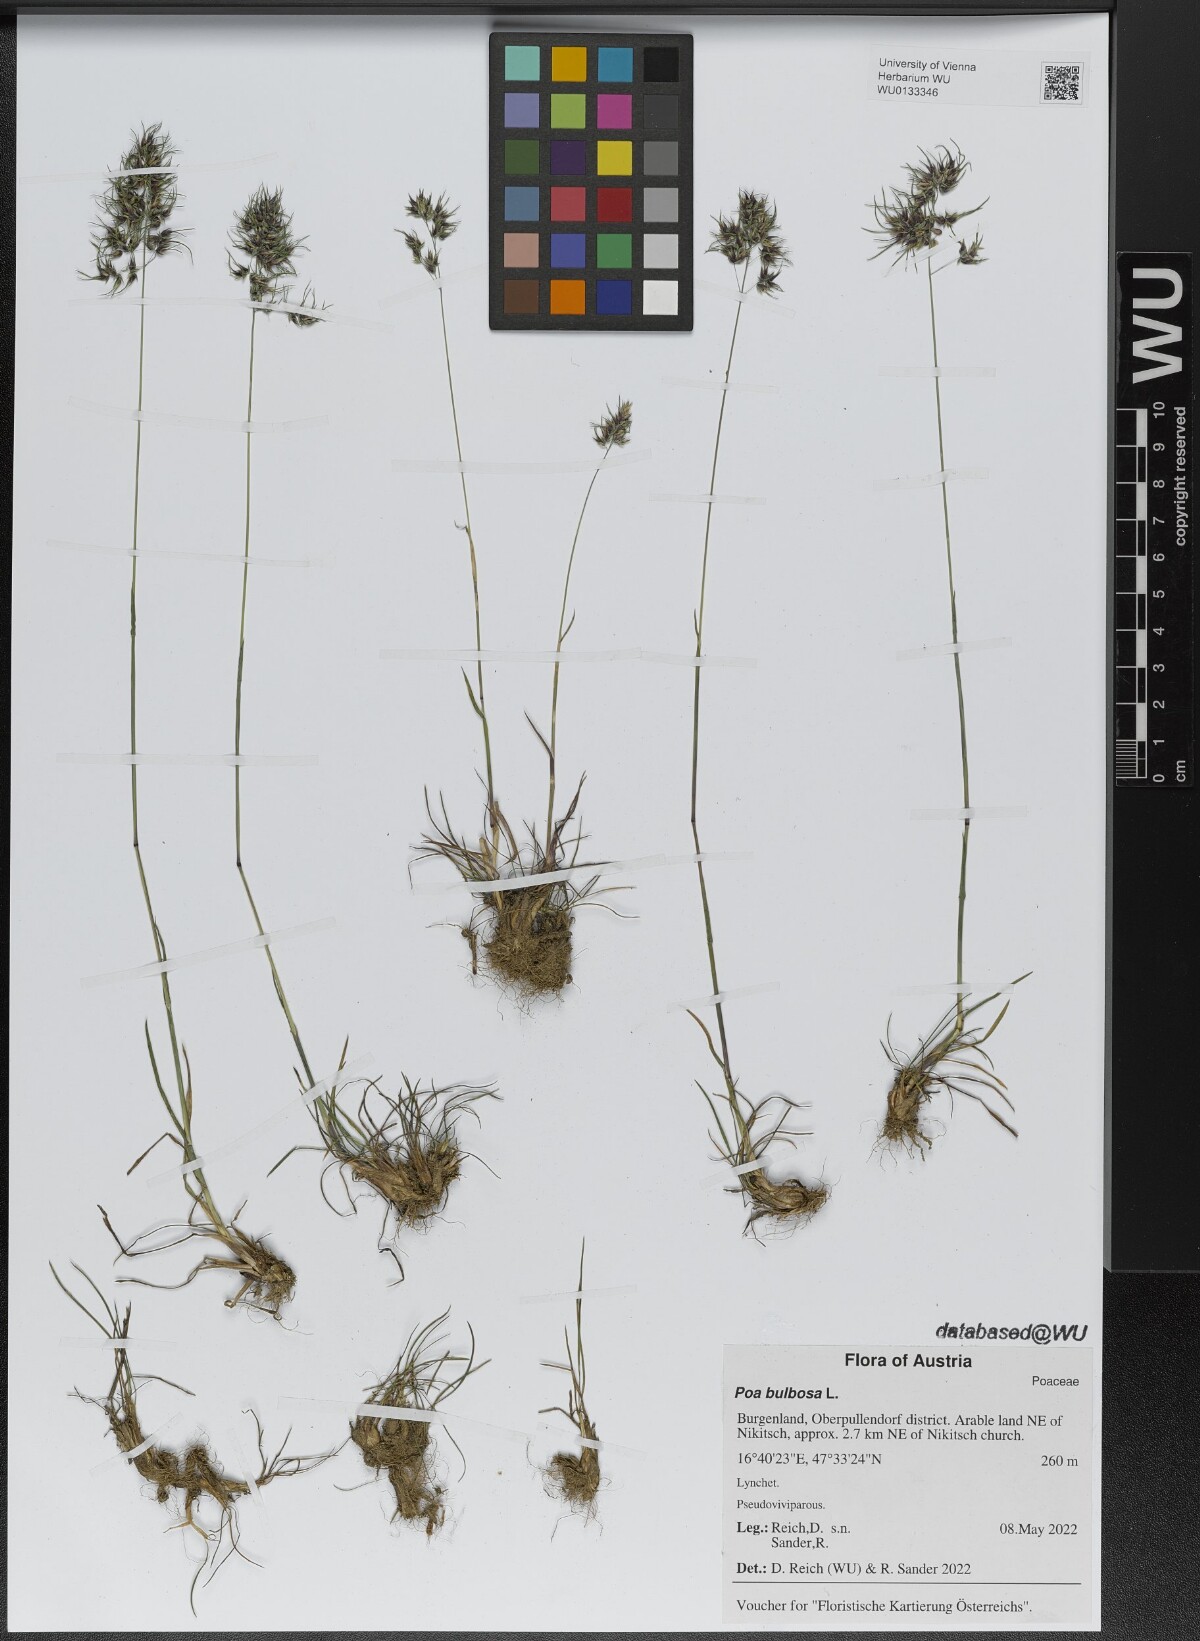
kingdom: Plantae
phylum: Tracheophyta
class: Liliopsida
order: Poales
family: Poaceae
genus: Poa
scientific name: Poa bulbosa
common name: Bulbous bluegrass
